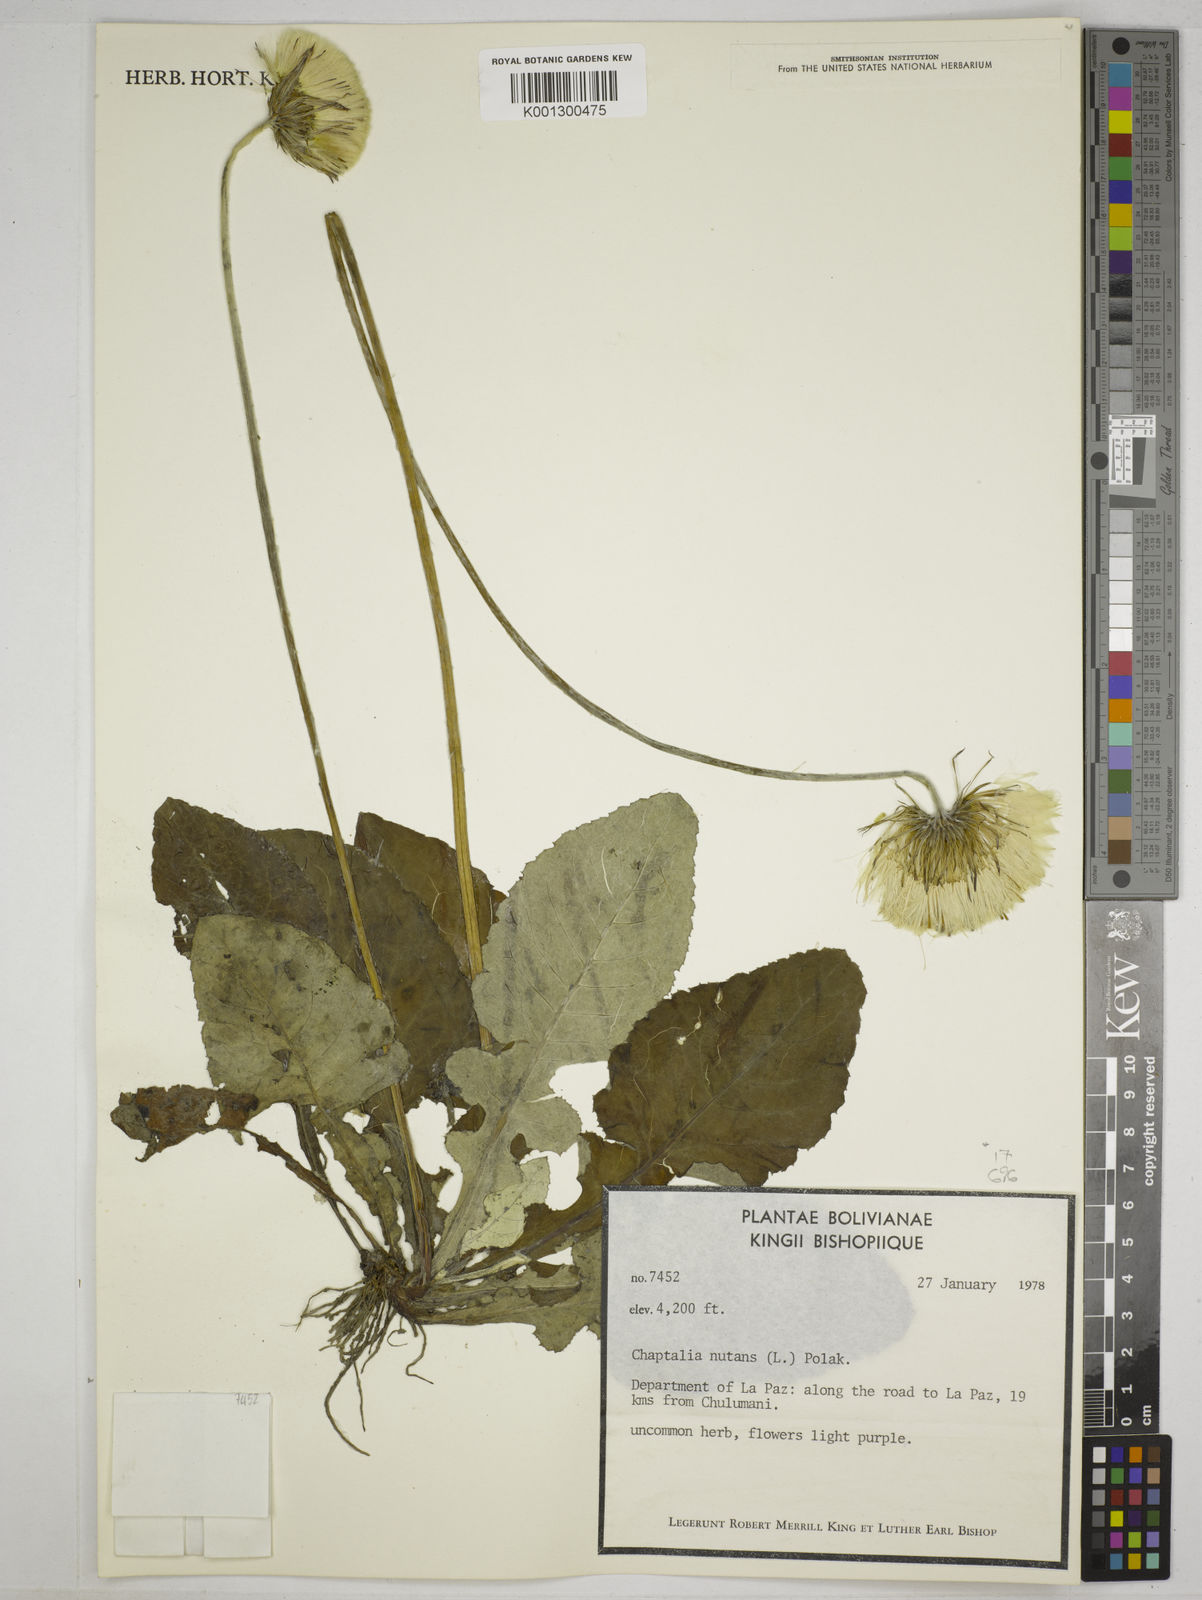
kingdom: Plantae
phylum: Tracheophyta
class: Magnoliopsida
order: Asterales
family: Asteraceae
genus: Chaptalia
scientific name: Chaptalia nutans
